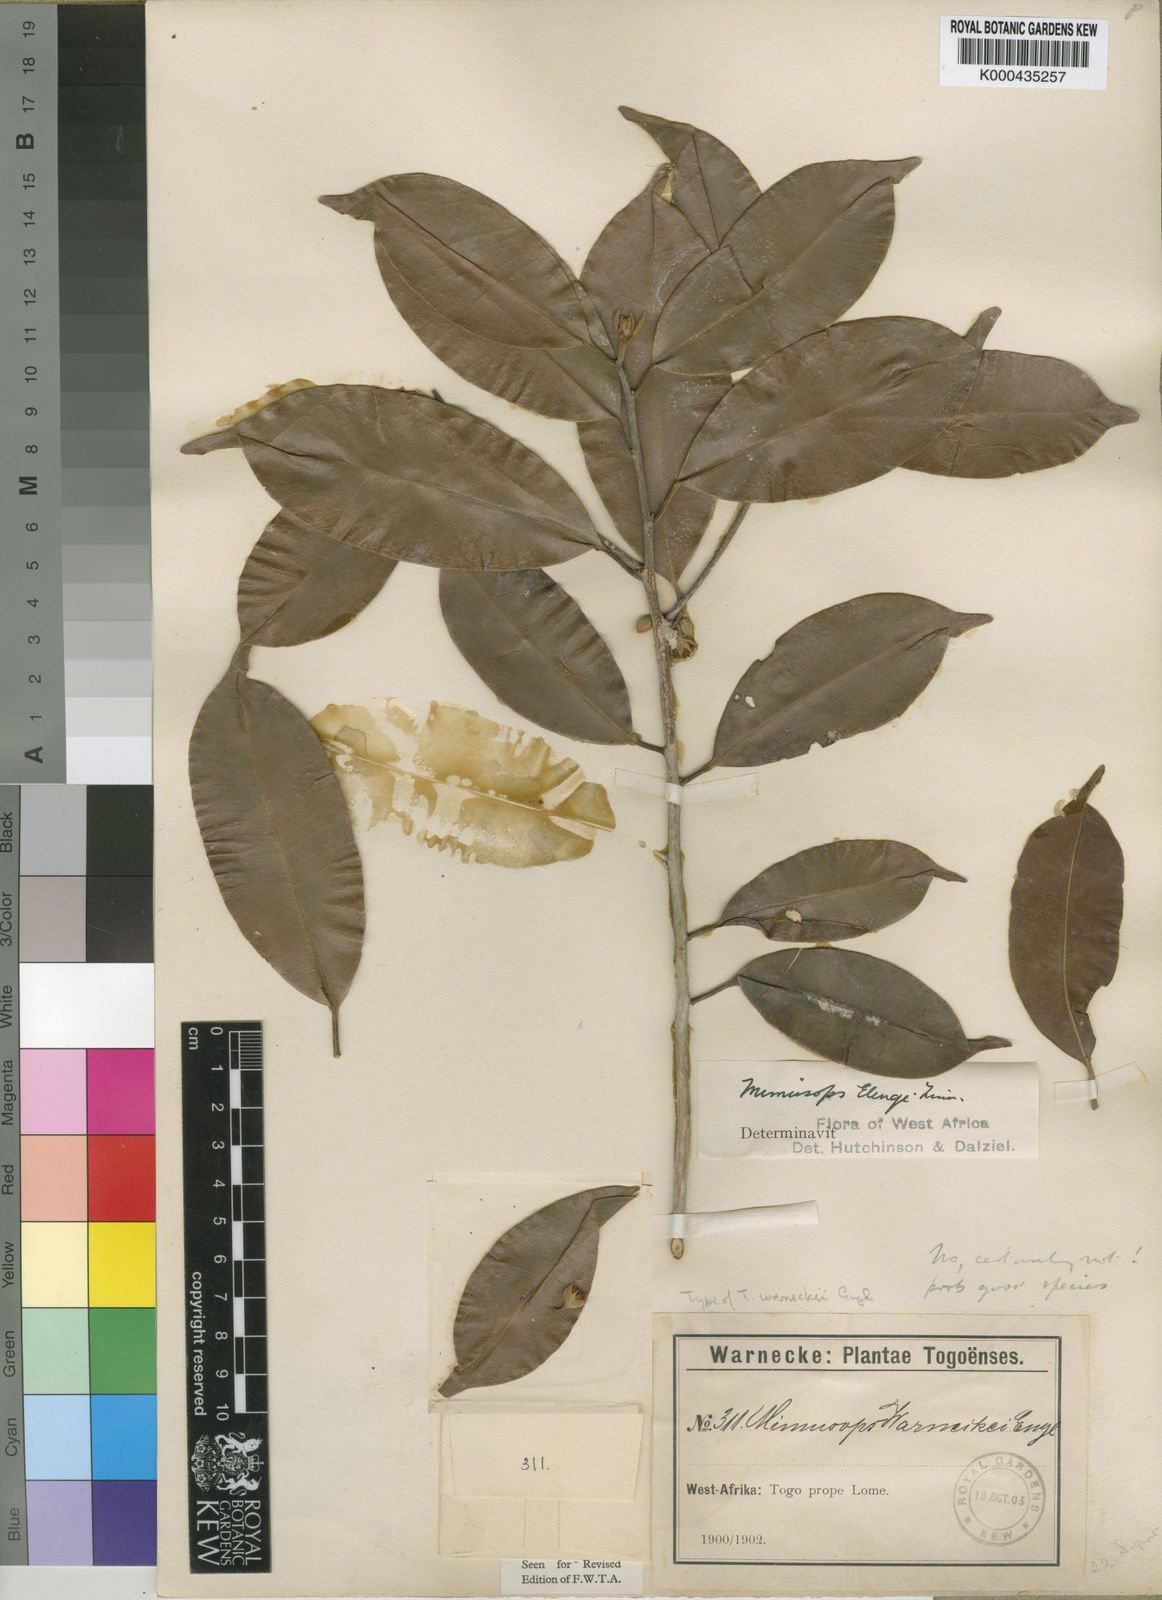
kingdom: Plantae
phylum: Tracheophyta
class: Magnoliopsida
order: Ericales
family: Sapotaceae
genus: Mimusops
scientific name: Mimusops andongensis
